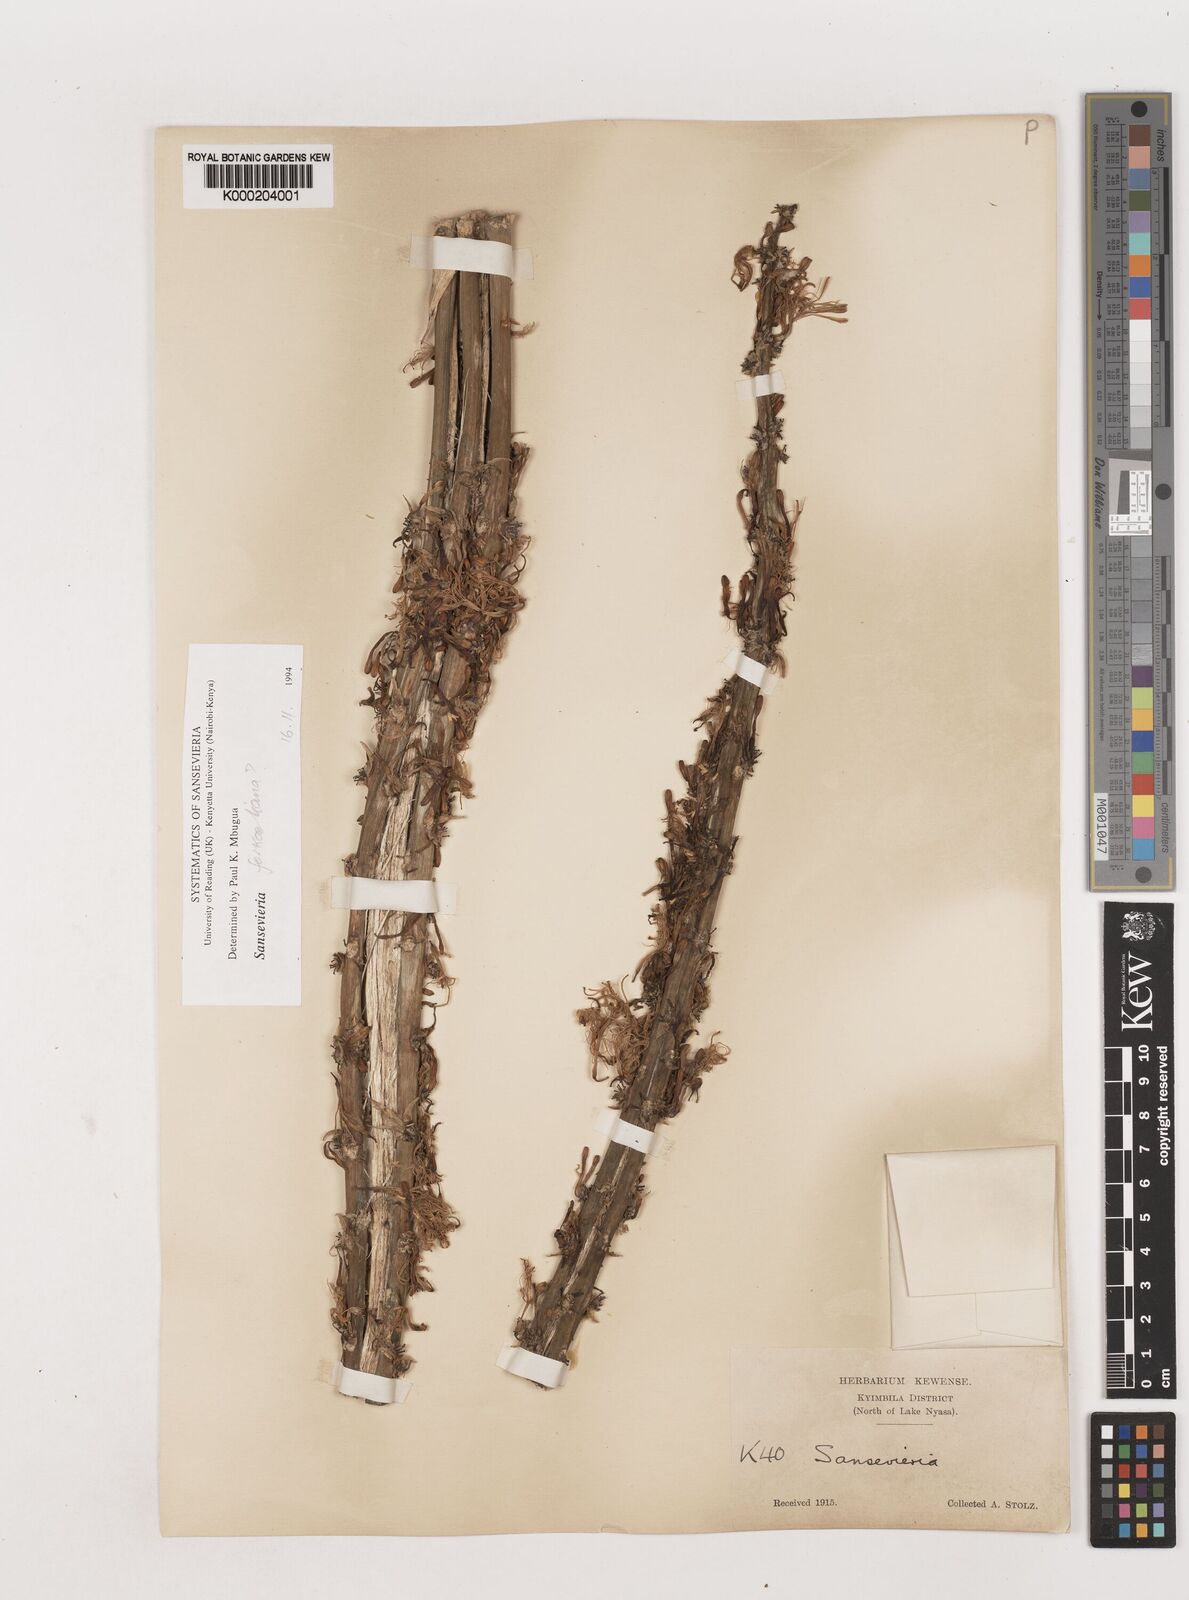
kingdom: Plantae
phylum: Tracheophyta
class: Liliopsida
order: Asparagales
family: Asparagaceae
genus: Dracaena
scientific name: Dracaena
